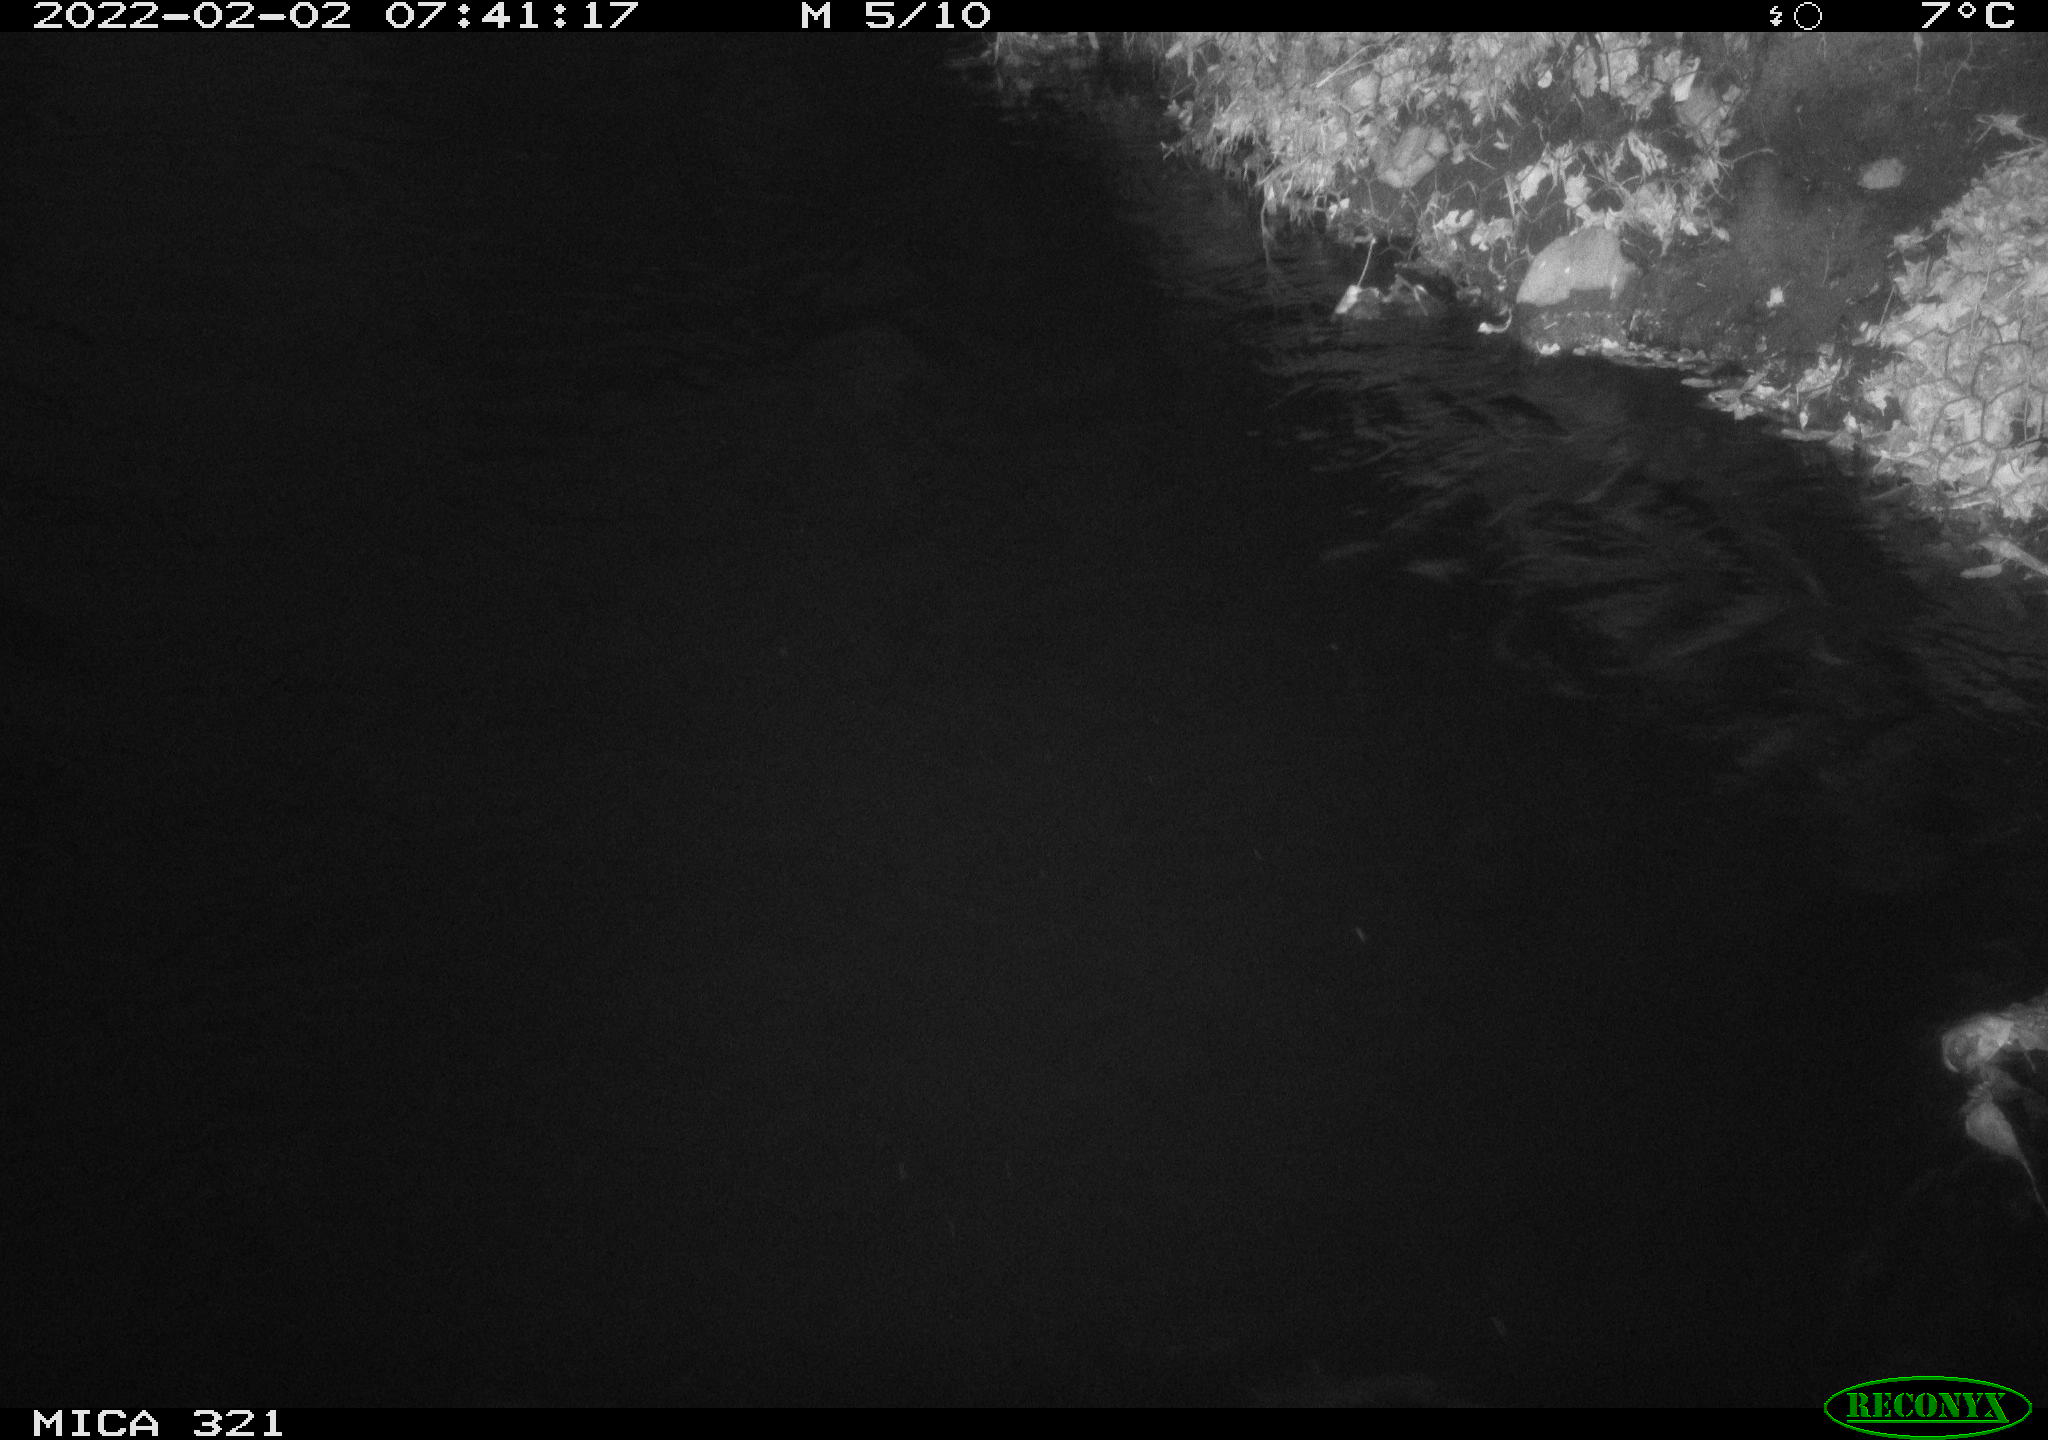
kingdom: Animalia
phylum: Chordata
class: Aves
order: Anseriformes
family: Anatidae
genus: Anas
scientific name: Anas
